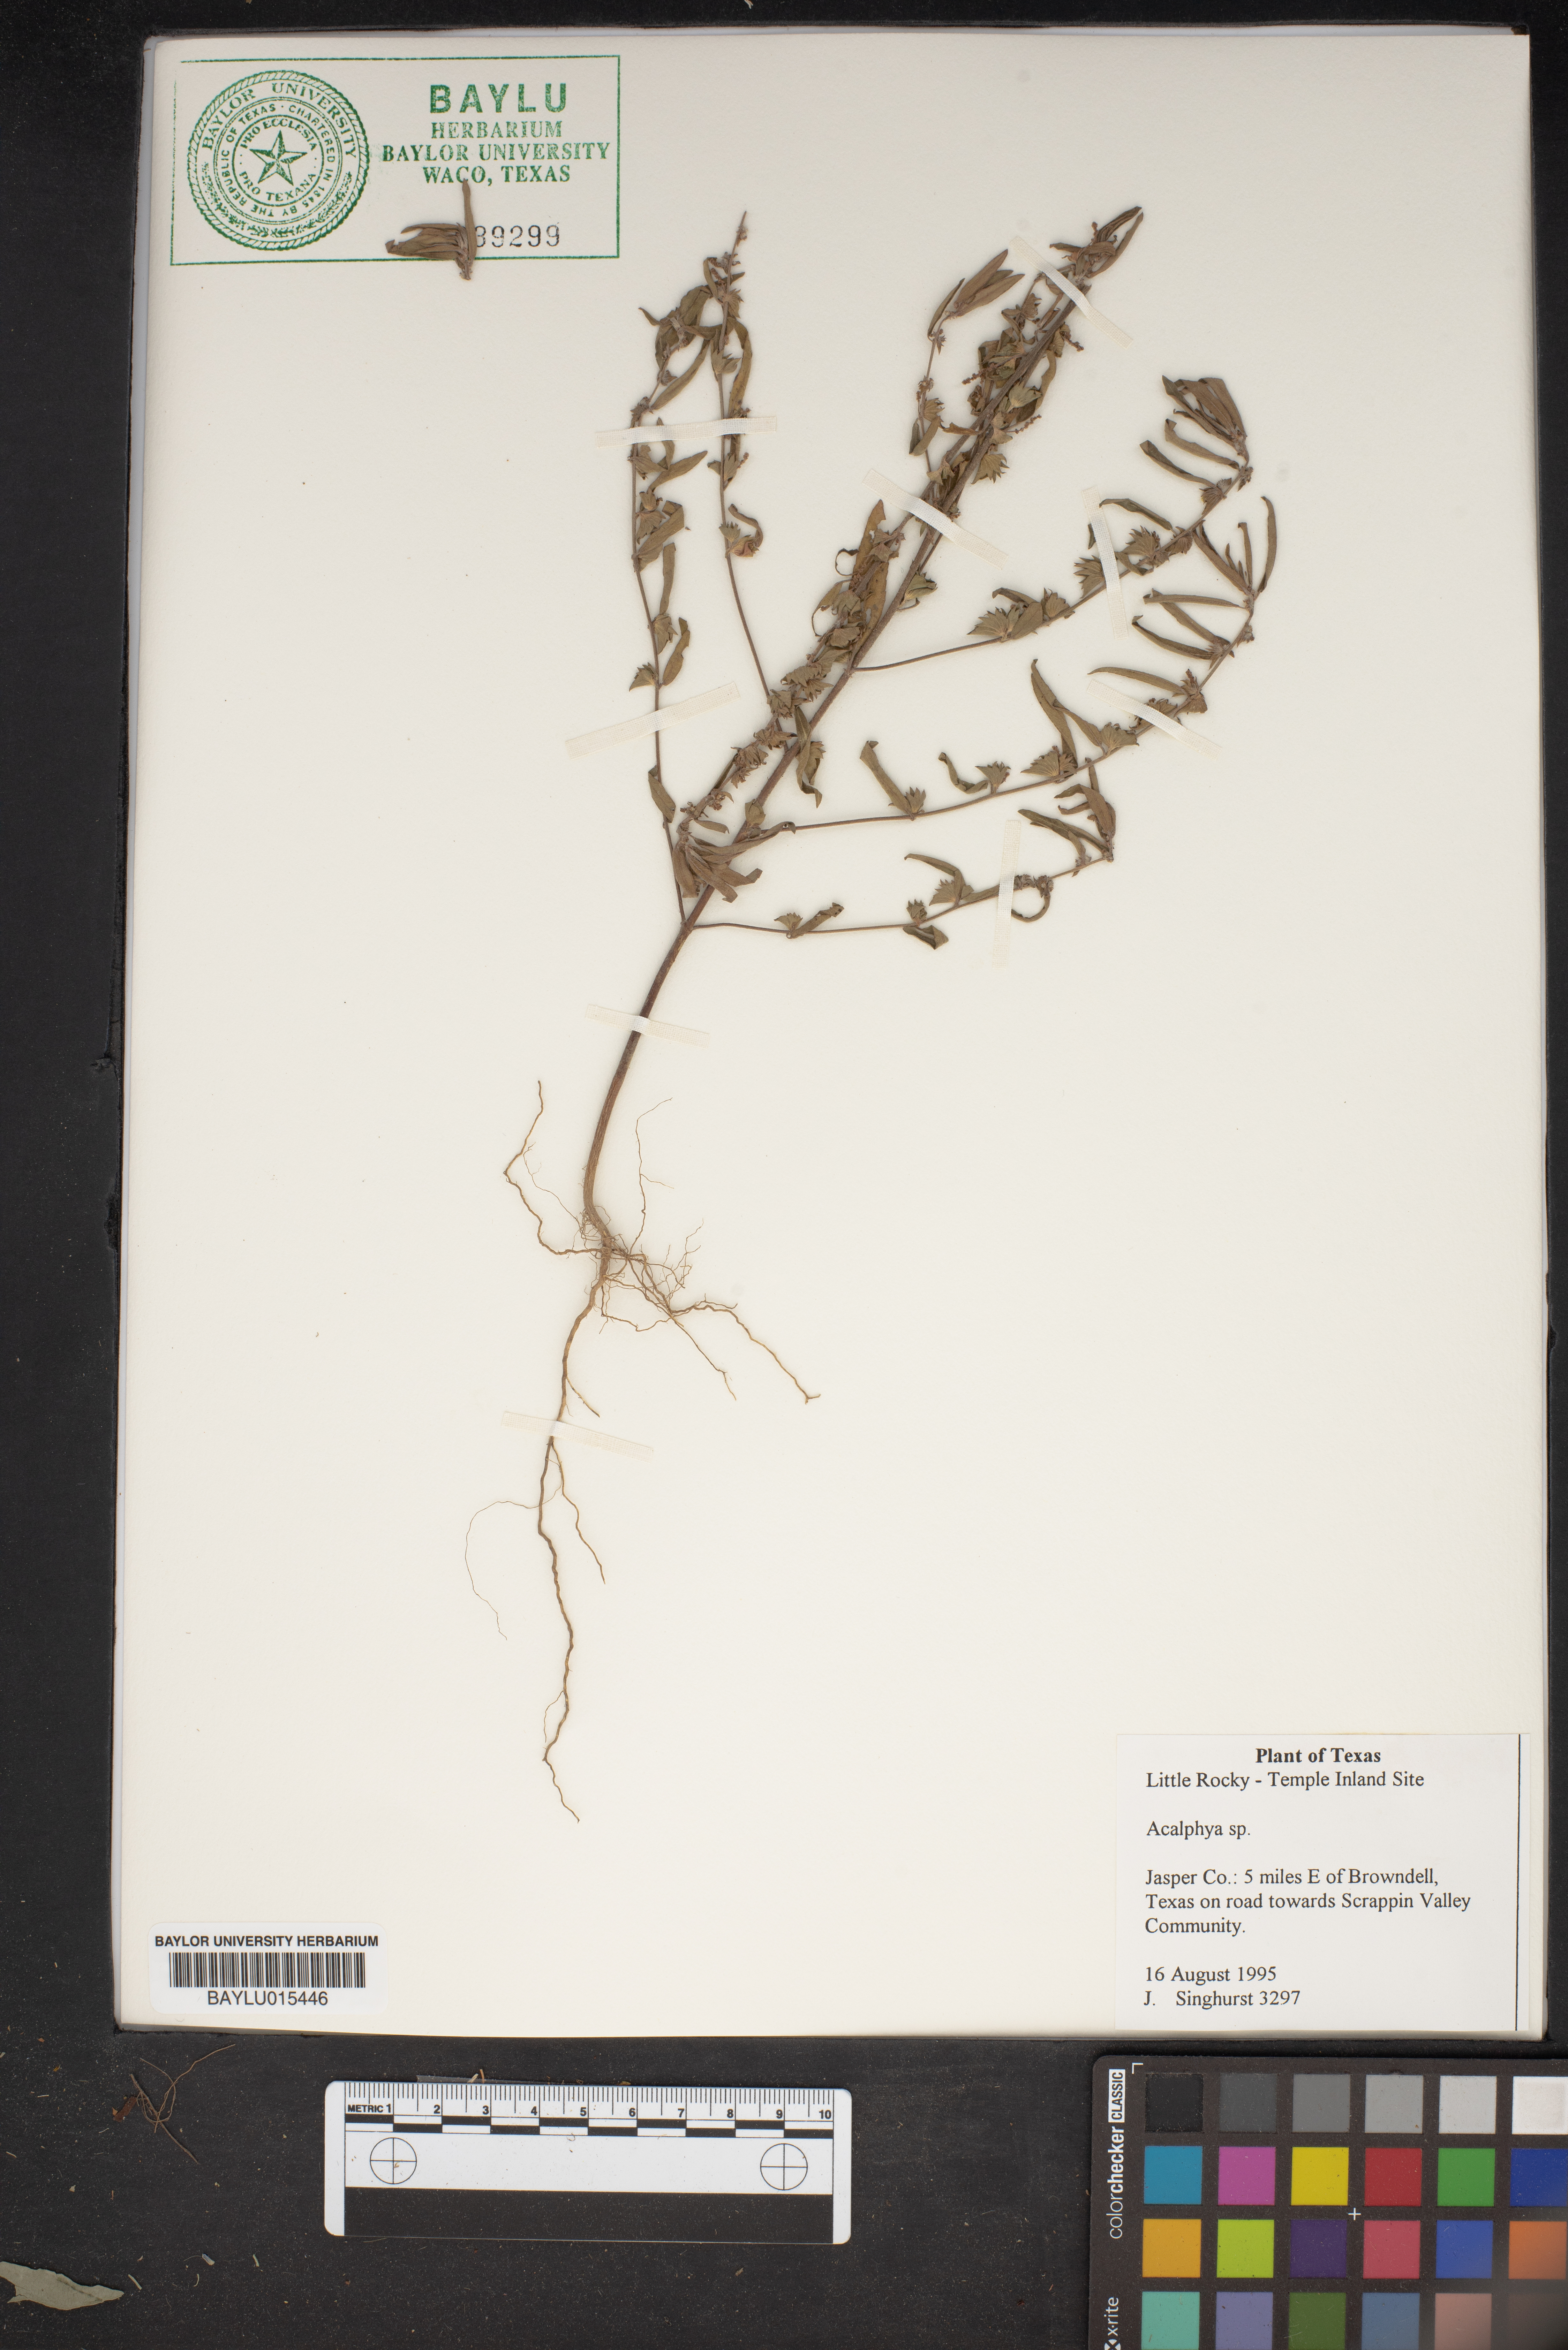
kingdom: Plantae
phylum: Tracheophyta
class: Magnoliopsida
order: Malpighiales
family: Euphorbiaceae
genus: Acalypha
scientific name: Acalypha
